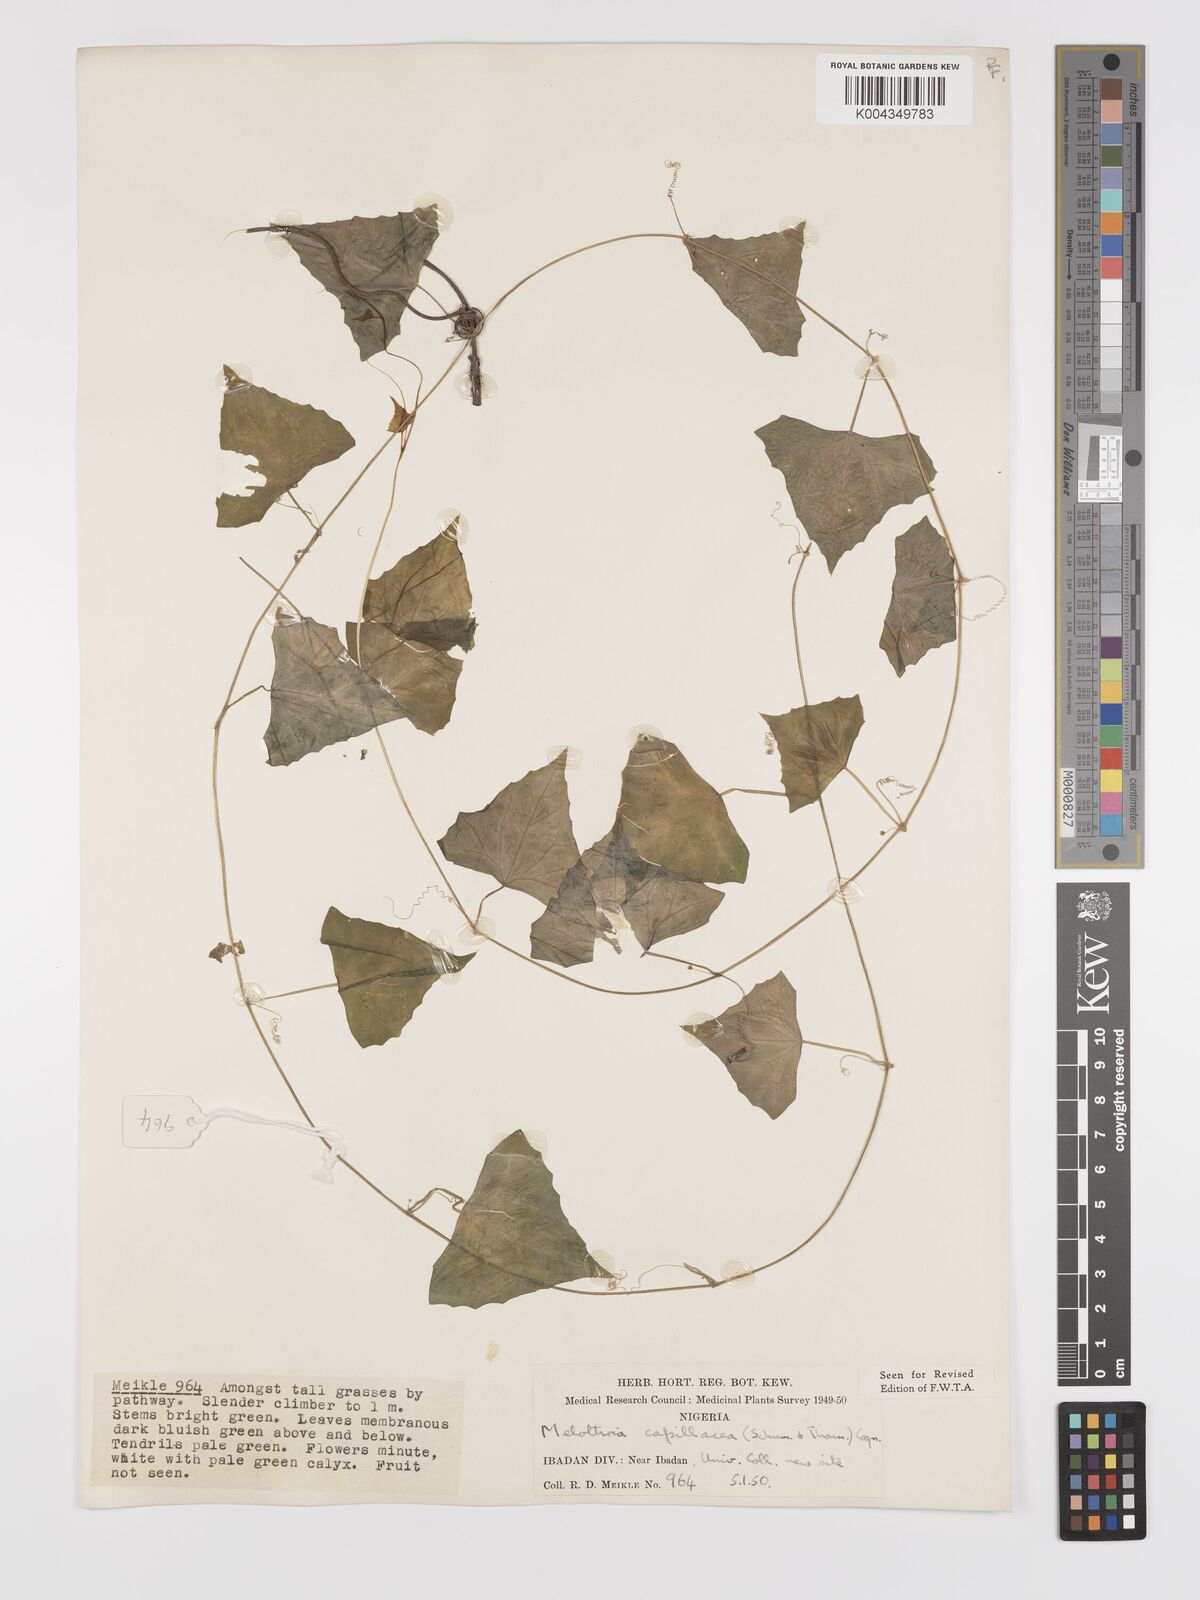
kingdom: Plantae
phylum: Tracheophyta
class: Magnoliopsida
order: Cucurbitales
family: Cucurbitaceae
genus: Zehneria
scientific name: Zehneria capillacea
